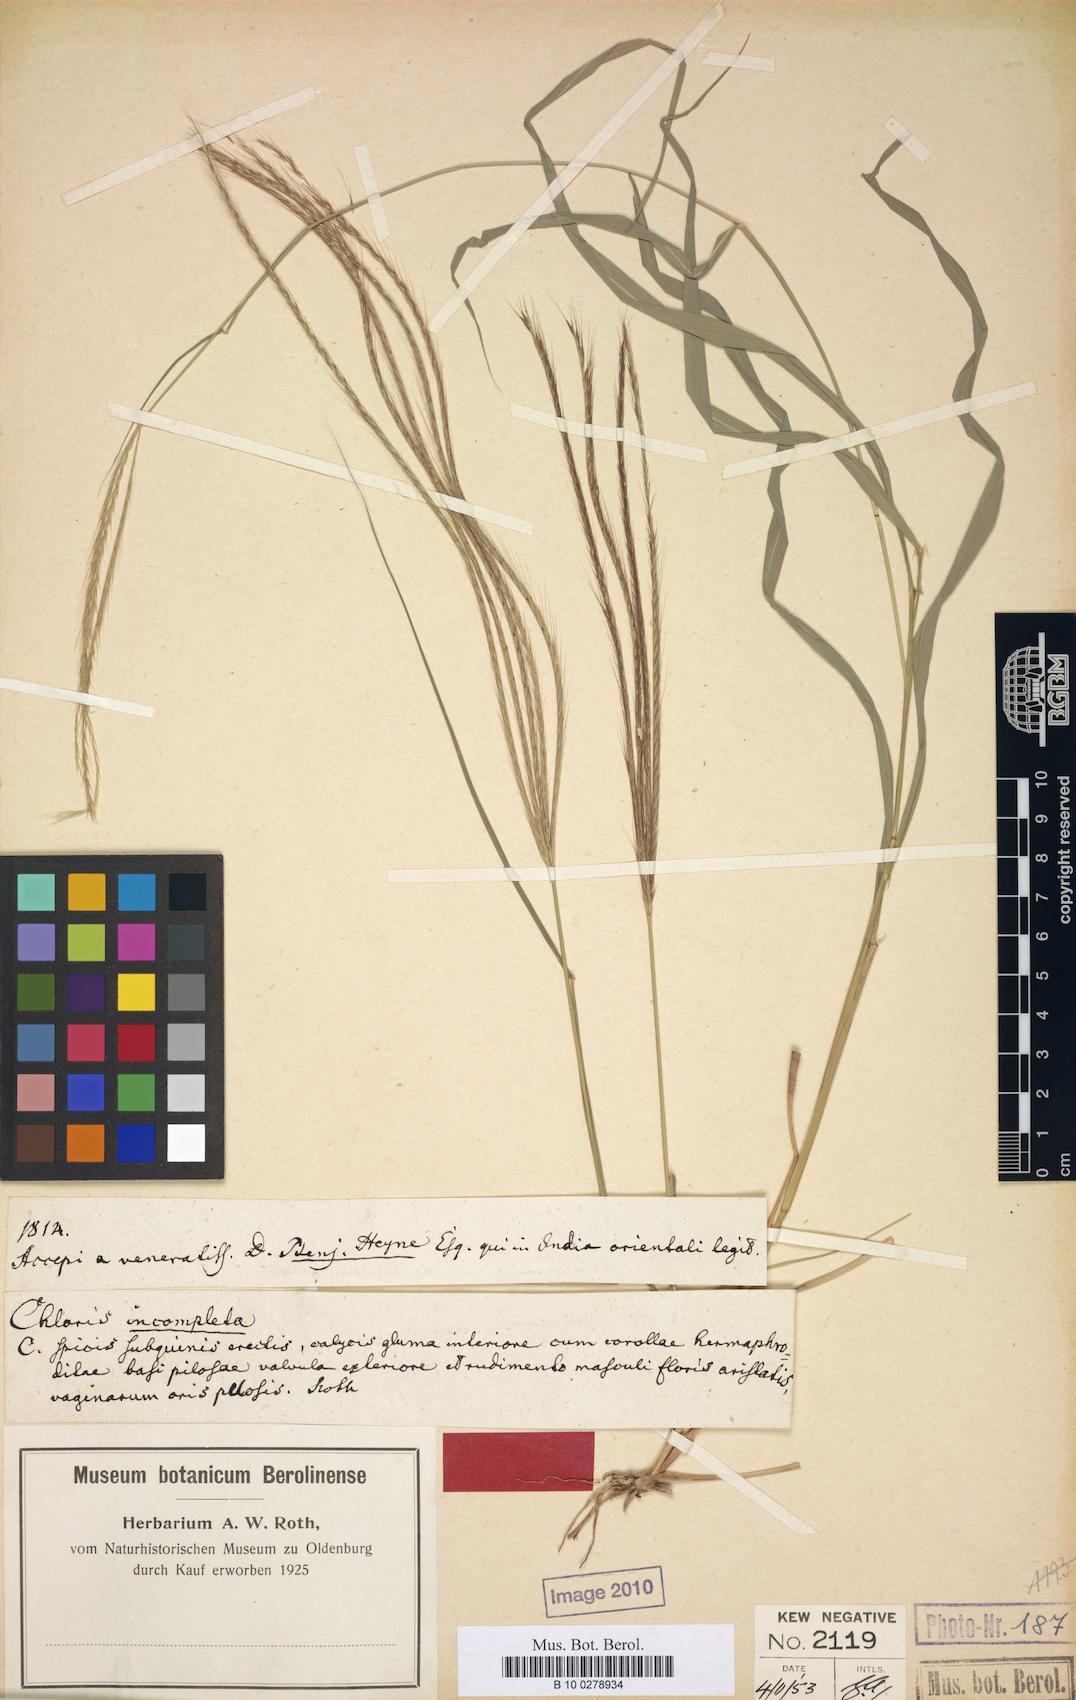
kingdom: Plantae
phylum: Tracheophyta
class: Liliopsida
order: Poales
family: Poaceae
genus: Enteropogon
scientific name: Enteropogon dolichostachyus
